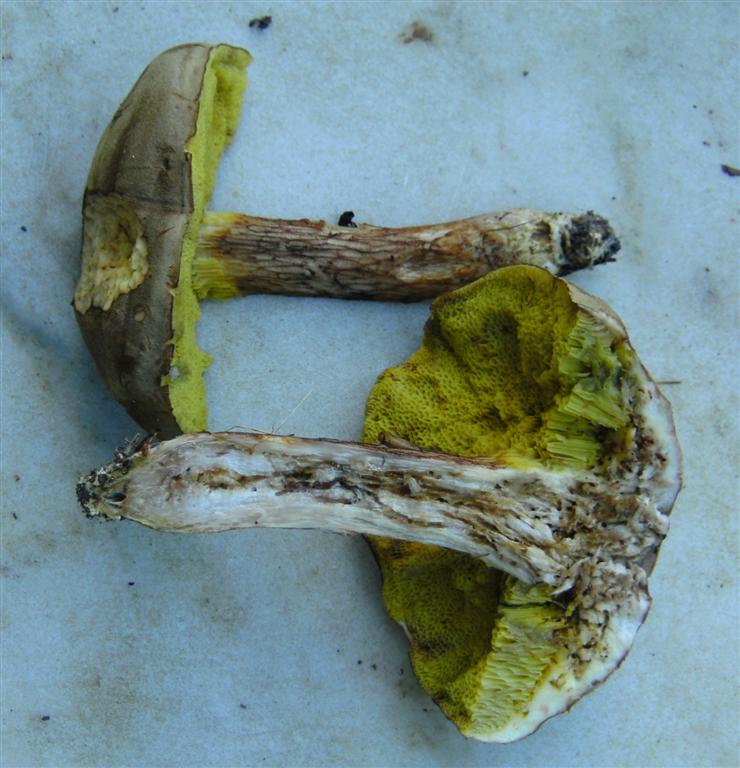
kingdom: Fungi
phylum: Basidiomycota
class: Agaricomycetes
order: Boletales
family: Boletaceae
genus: Xerocomus
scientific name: Xerocomus ferrugineus
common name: vaskeskinds-rørhat
